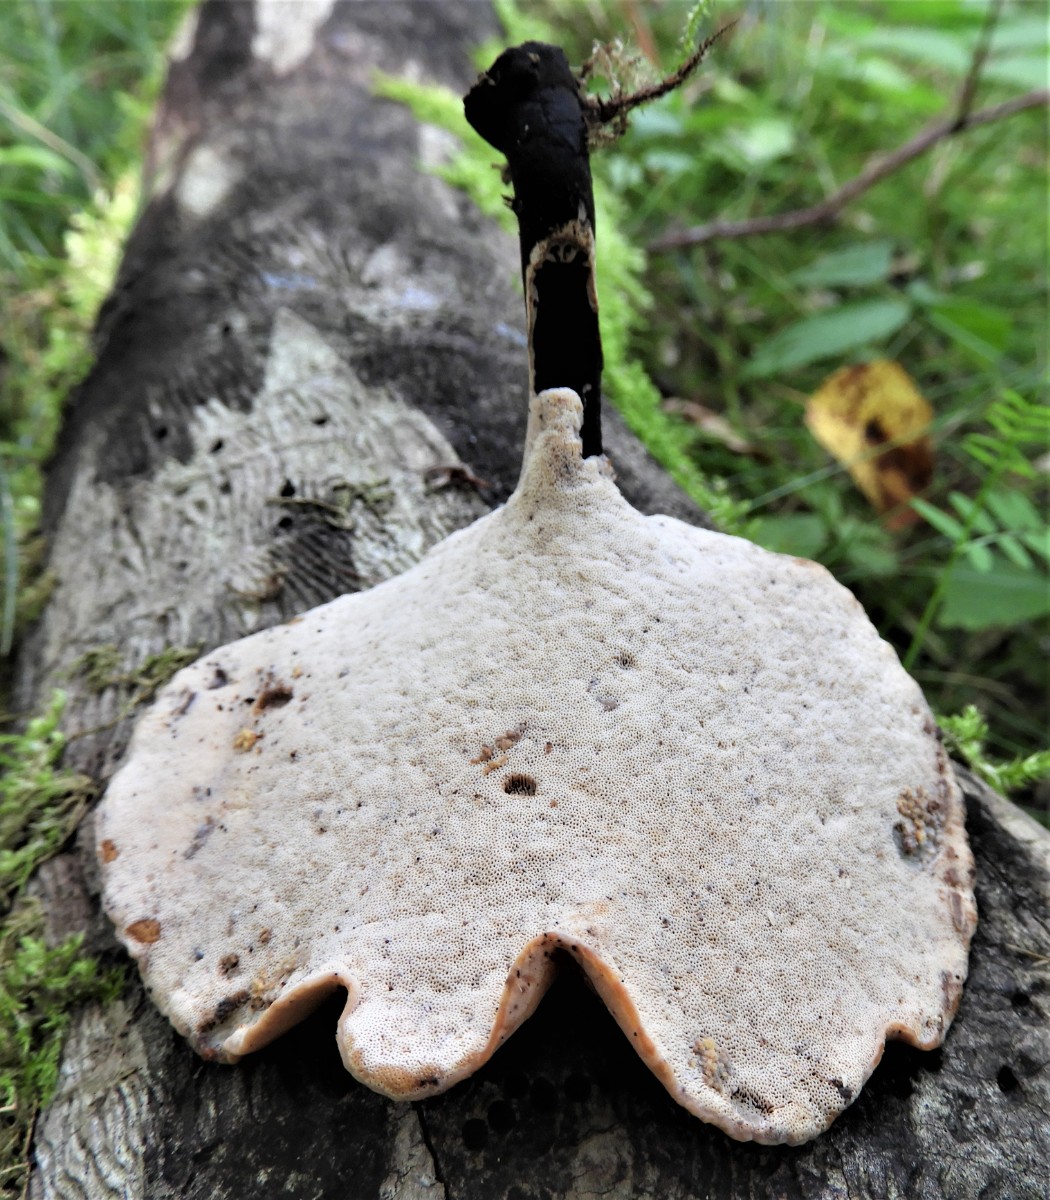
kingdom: Fungi
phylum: Basidiomycota
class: Agaricomycetes
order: Polyporales
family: Polyporaceae
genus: Cerioporus
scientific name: Cerioporus varius
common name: foranderlig stilkporesvamp
